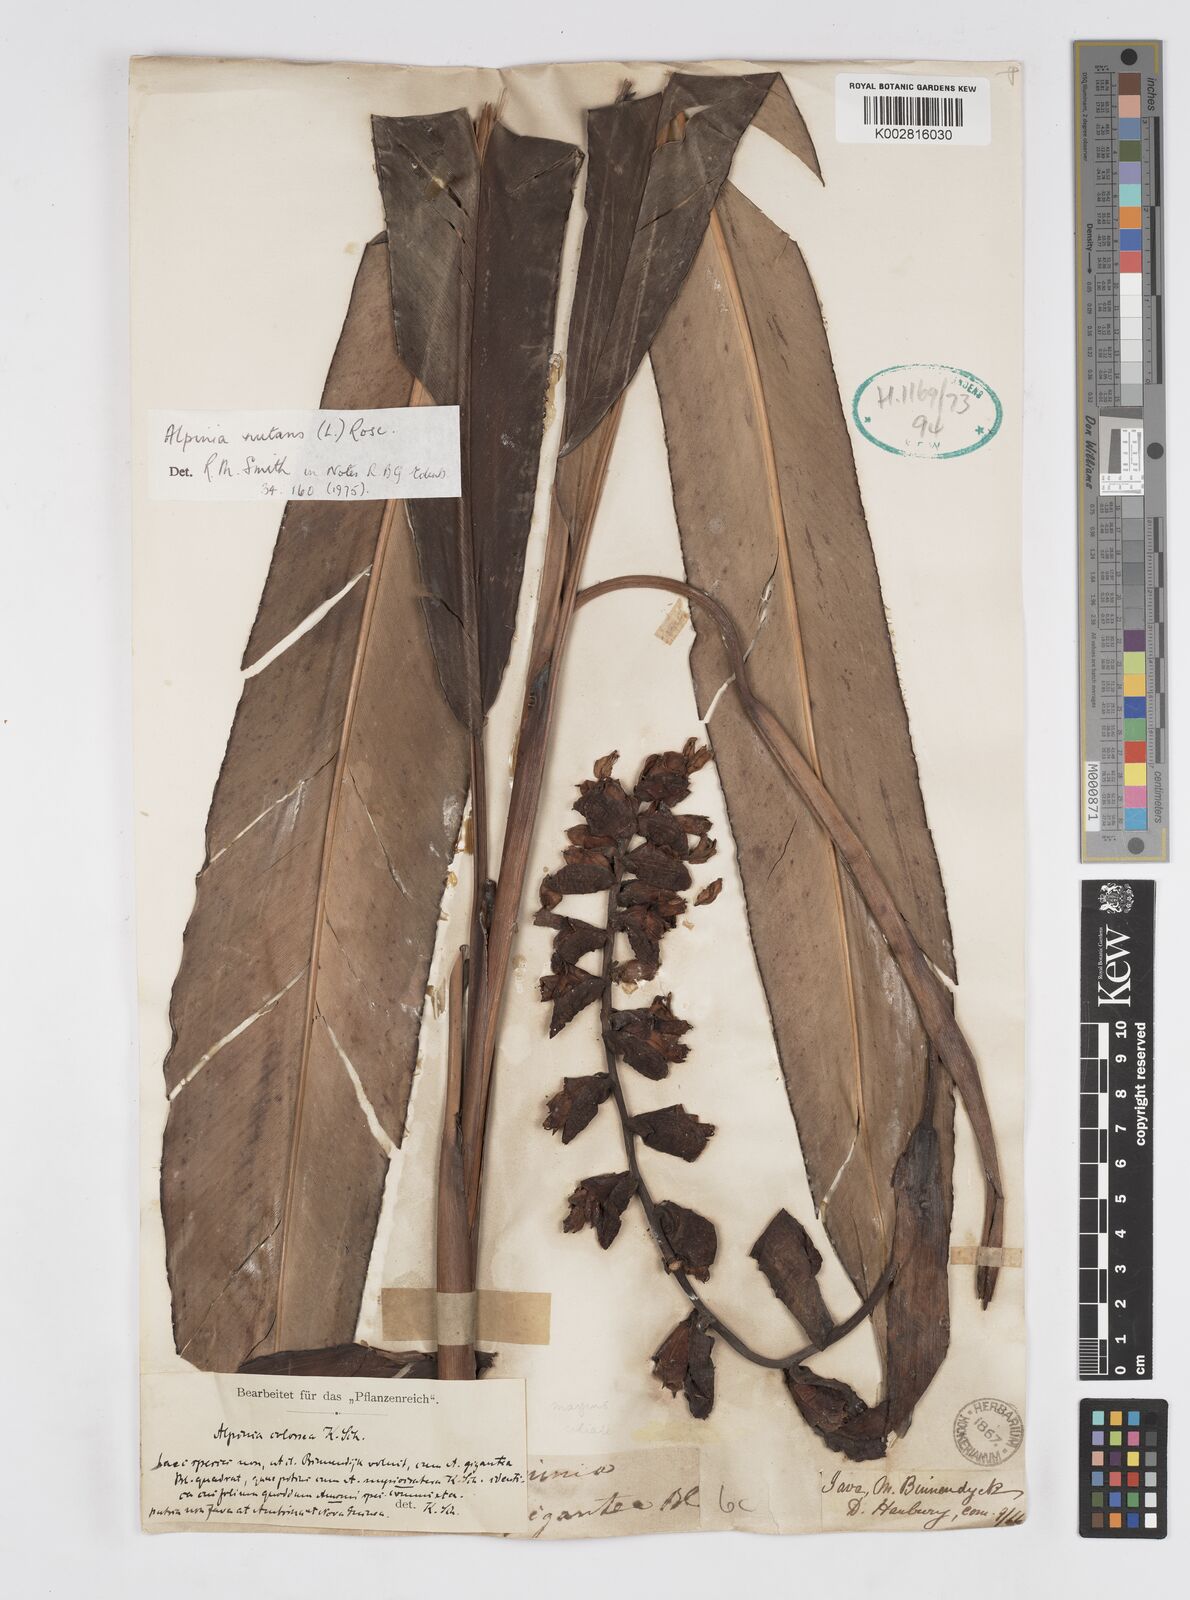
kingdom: Plantae
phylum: Tracheophyta
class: Liliopsida
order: Zingiberales
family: Zingiberaceae
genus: Alpinia
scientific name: Alpinia nutans
